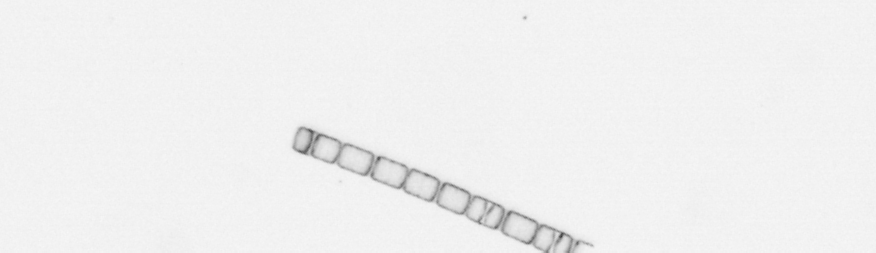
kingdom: Chromista
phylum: Ochrophyta
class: Bacillariophyceae
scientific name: Bacillariophyceae
